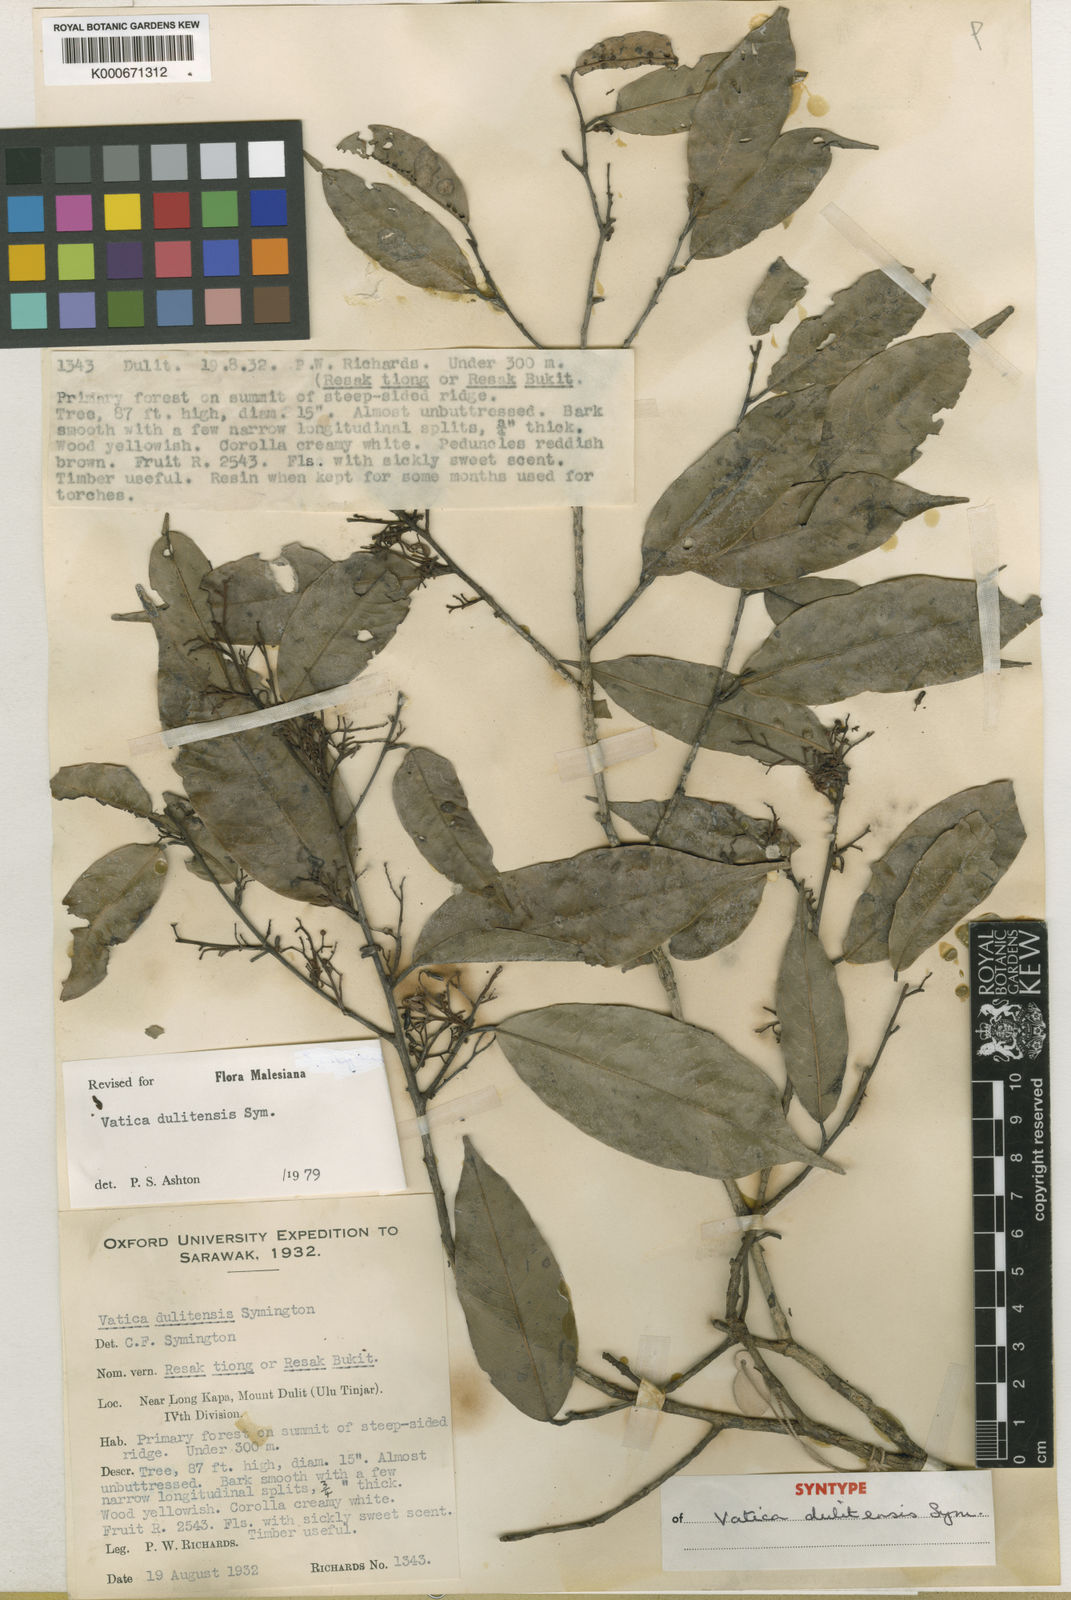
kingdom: Plantae
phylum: Tracheophyta
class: Magnoliopsida
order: Malvales
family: Dipterocarpaceae
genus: Vatica
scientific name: Vatica dulitensis
